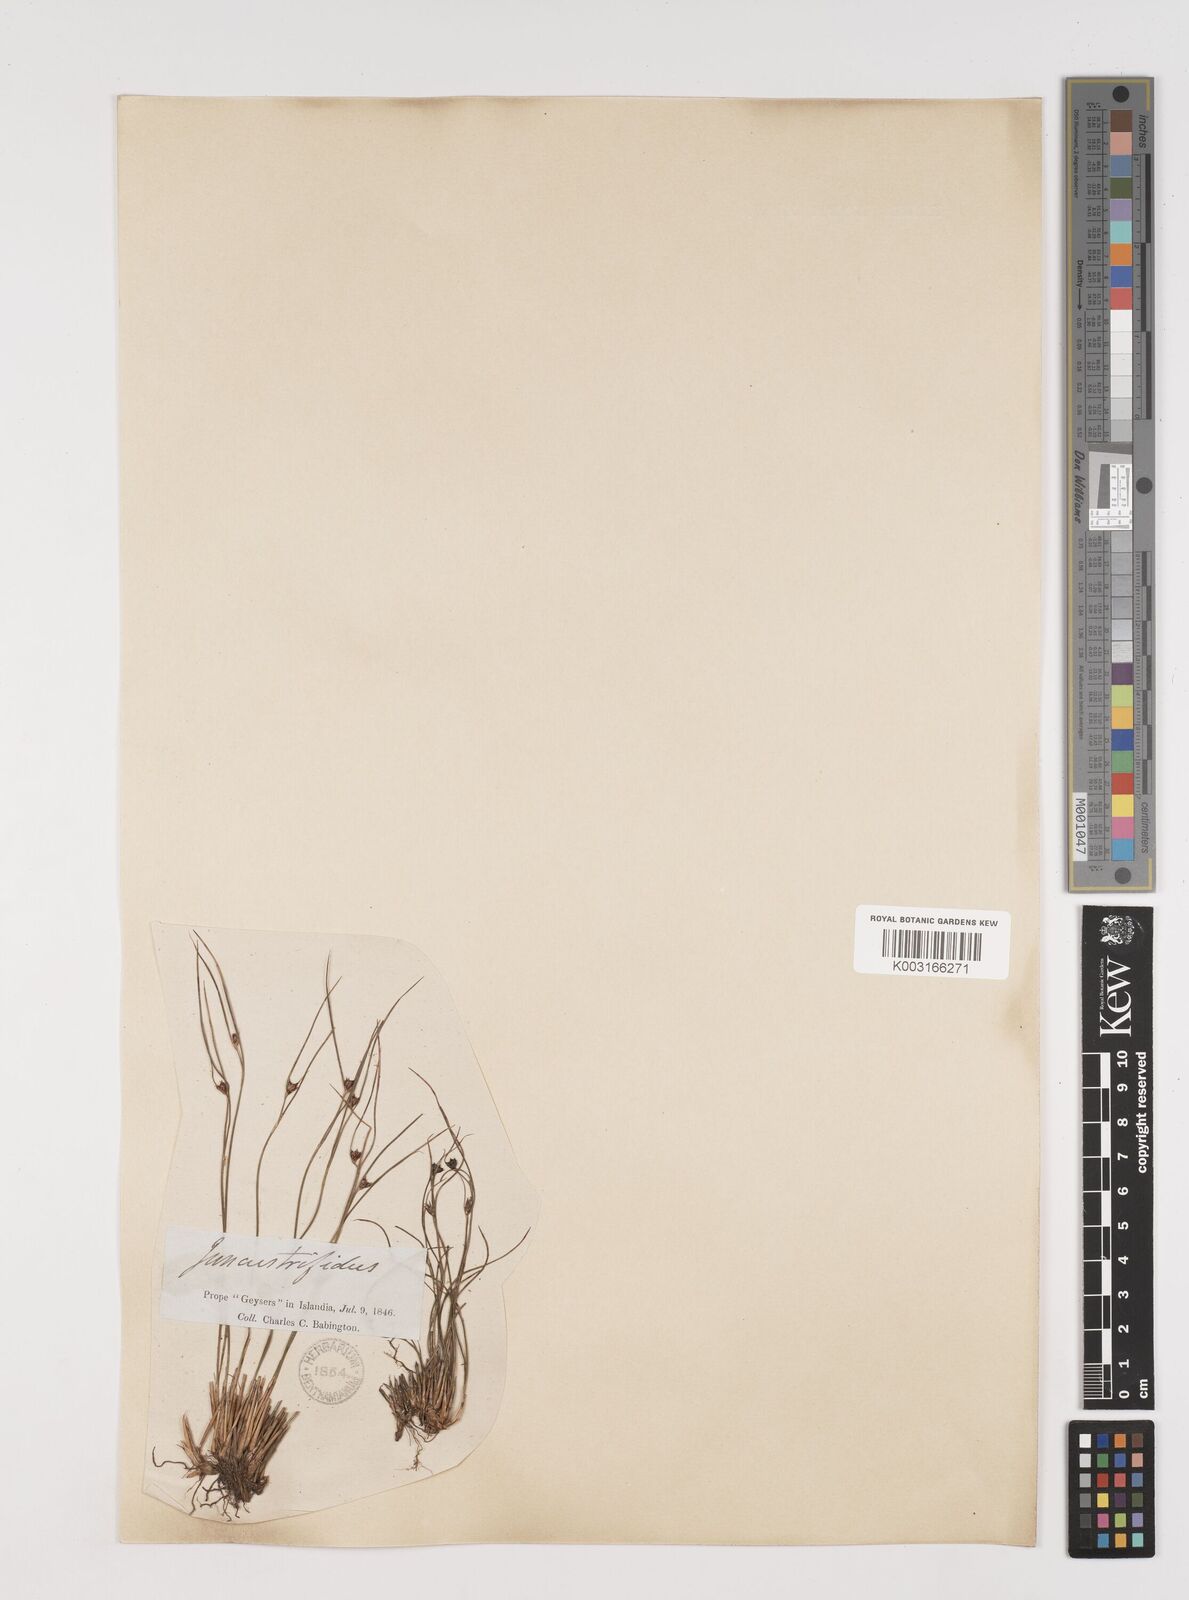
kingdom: Plantae
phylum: Tracheophyta
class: Liliopsida
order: Poales
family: Juncaceae
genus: Oreojuncus
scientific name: Oreojuncus trifidus
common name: Highland rush
